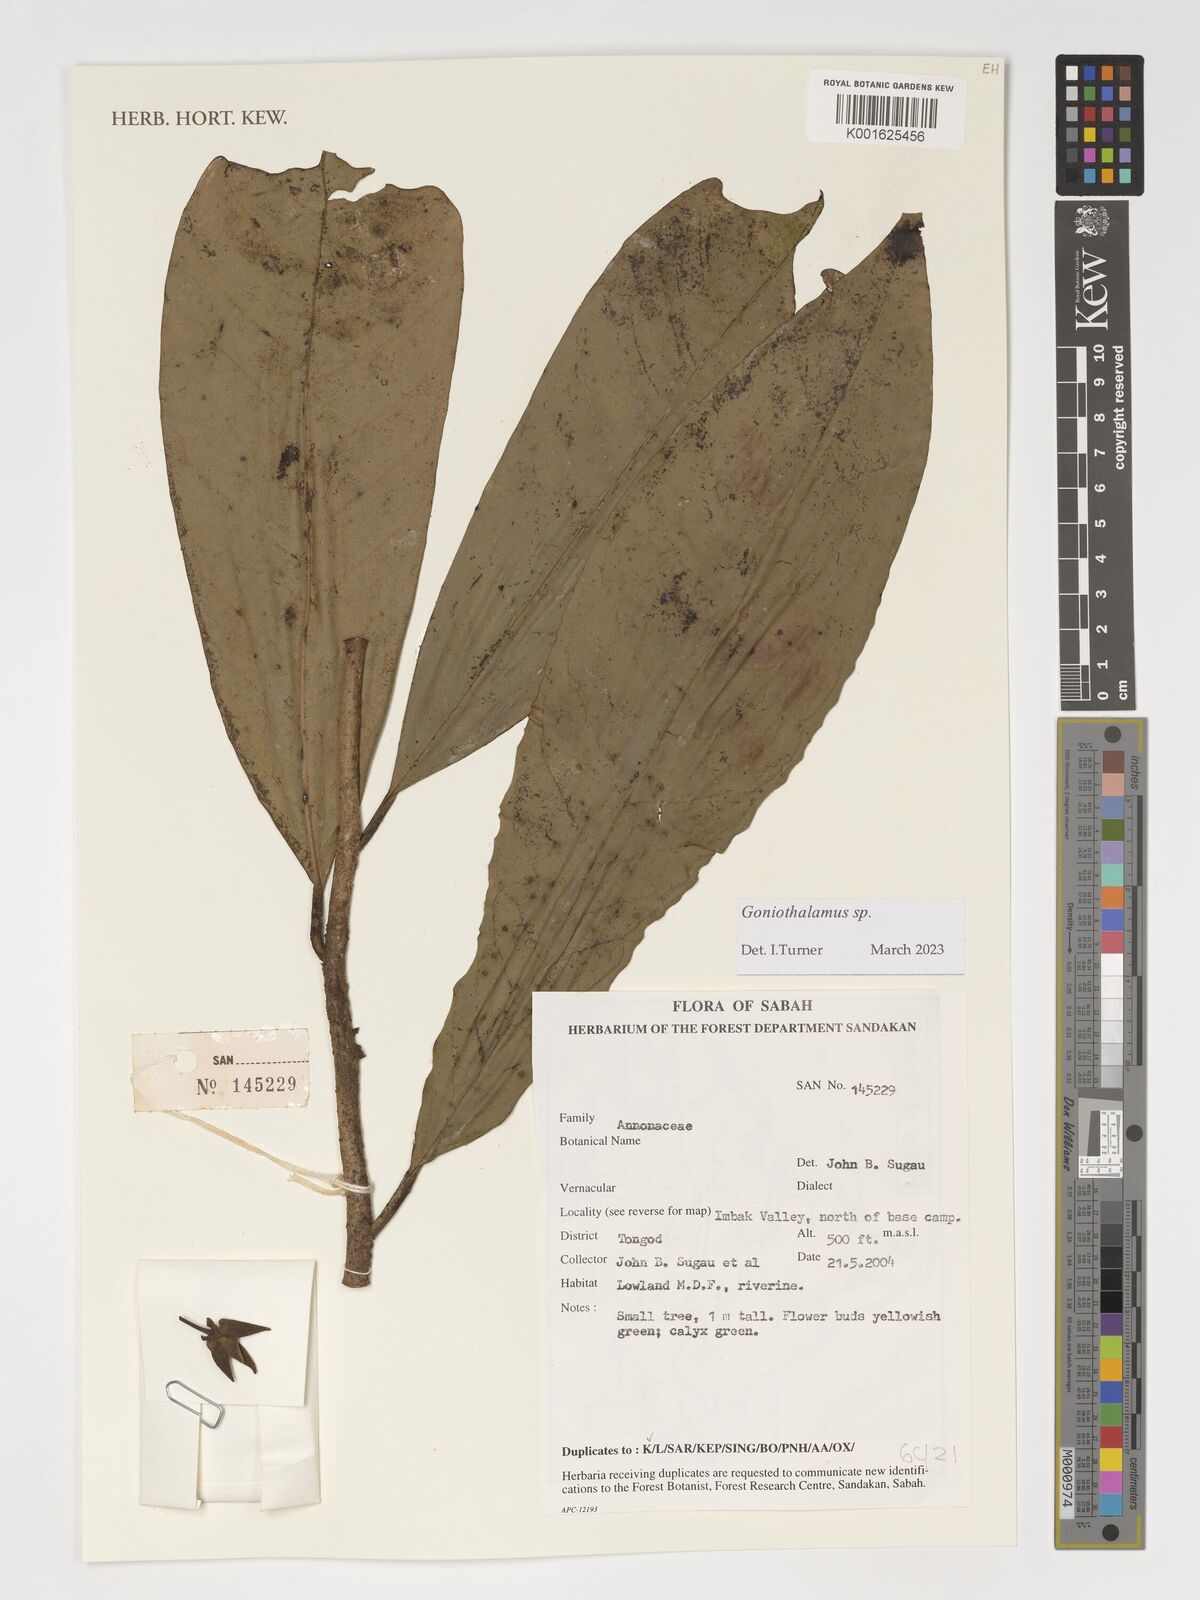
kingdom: Plantae
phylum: Tracheophyta
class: Magnoliopsida
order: Magnoliales
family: Annonaceae
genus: Goniothalamus
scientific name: Goniothalamus
